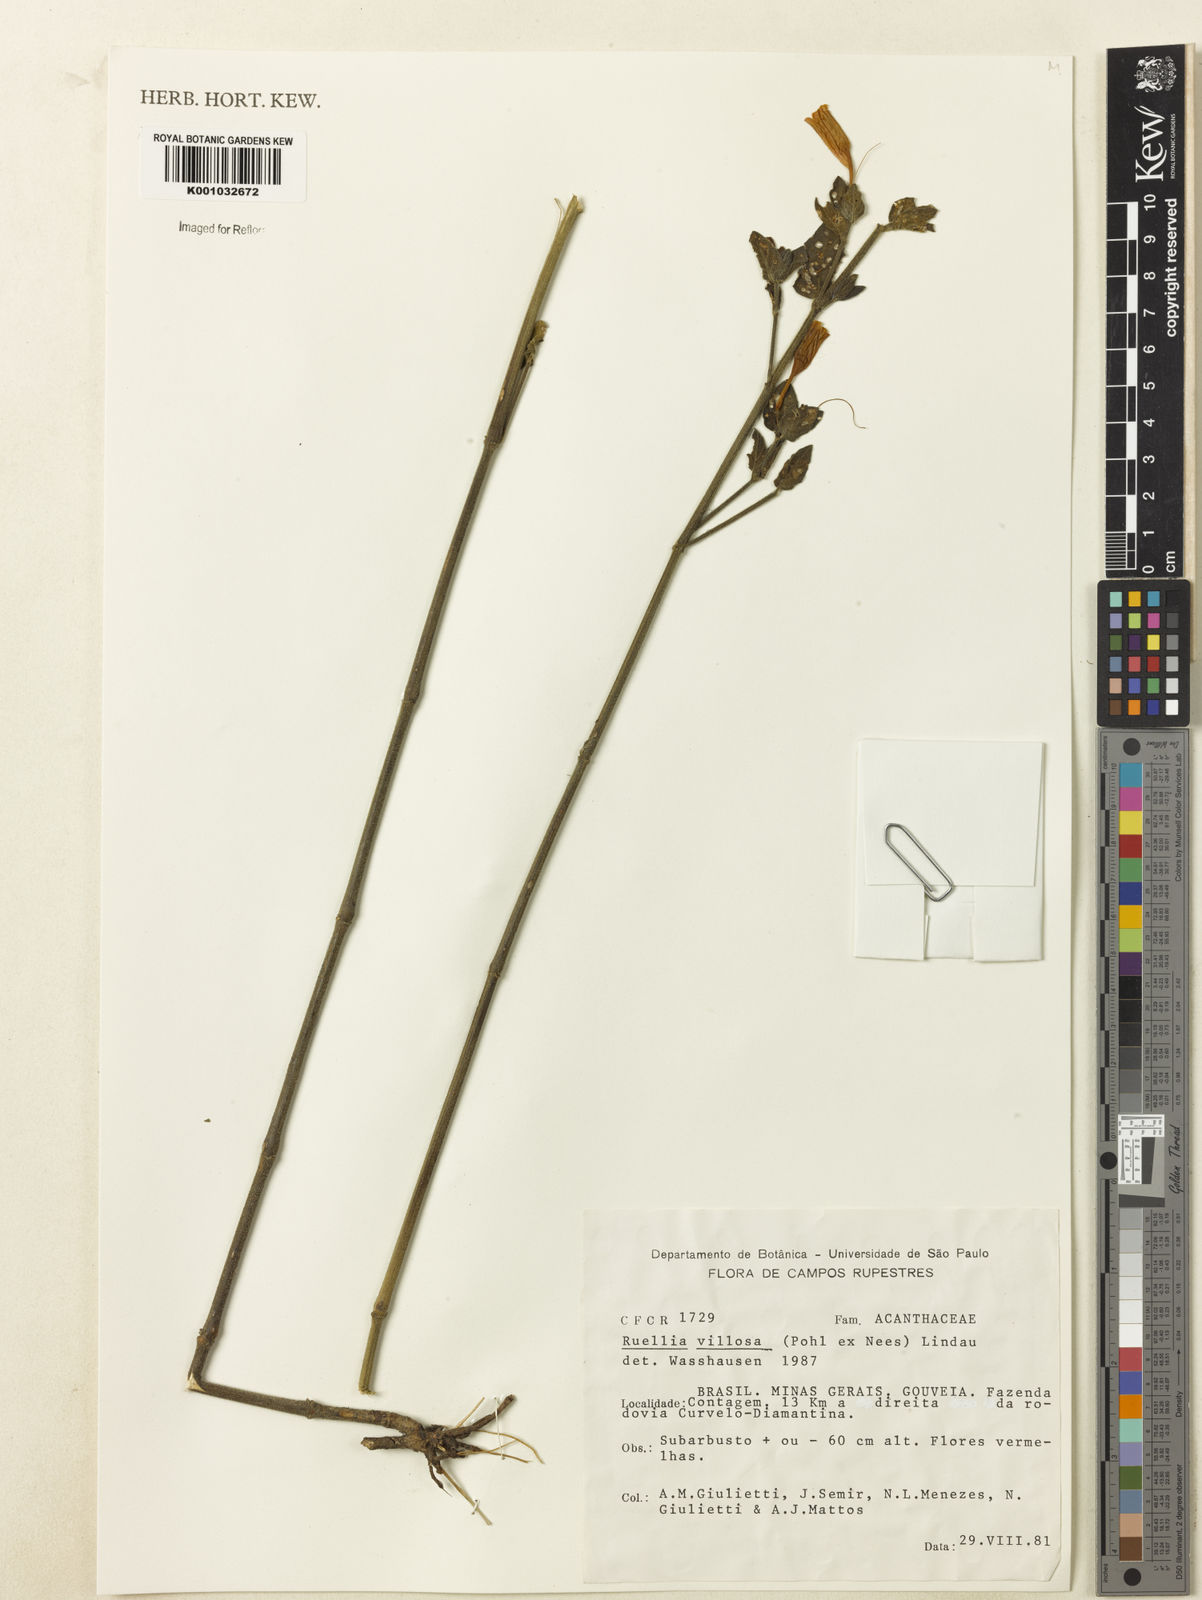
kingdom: Plantae
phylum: Tracheophyta
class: Magnoliopsida
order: Lamiales
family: Acanthaceae
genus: Ruellia
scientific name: Ruellia villosa
